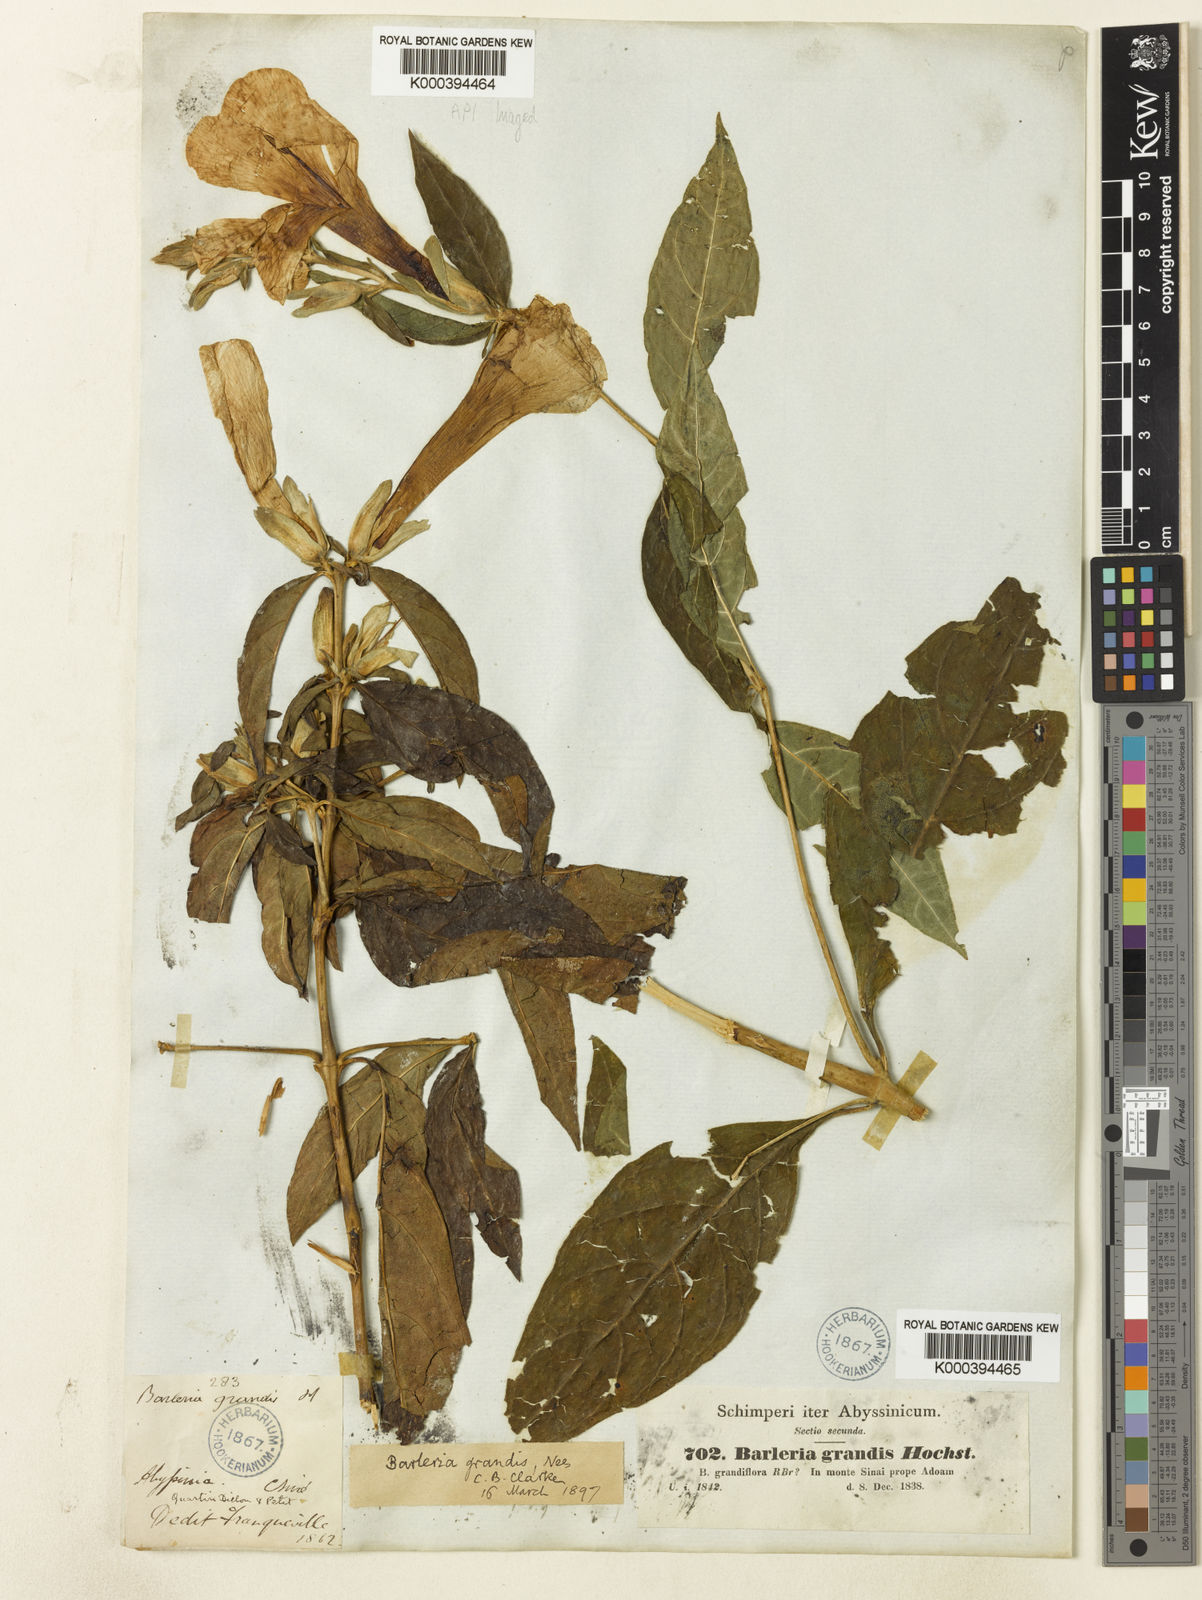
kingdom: Plantae
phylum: Tracheophyta
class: Magnoliopsida
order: Lamiales
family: Acanthaceae
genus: Barleria
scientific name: Barleria grandis
